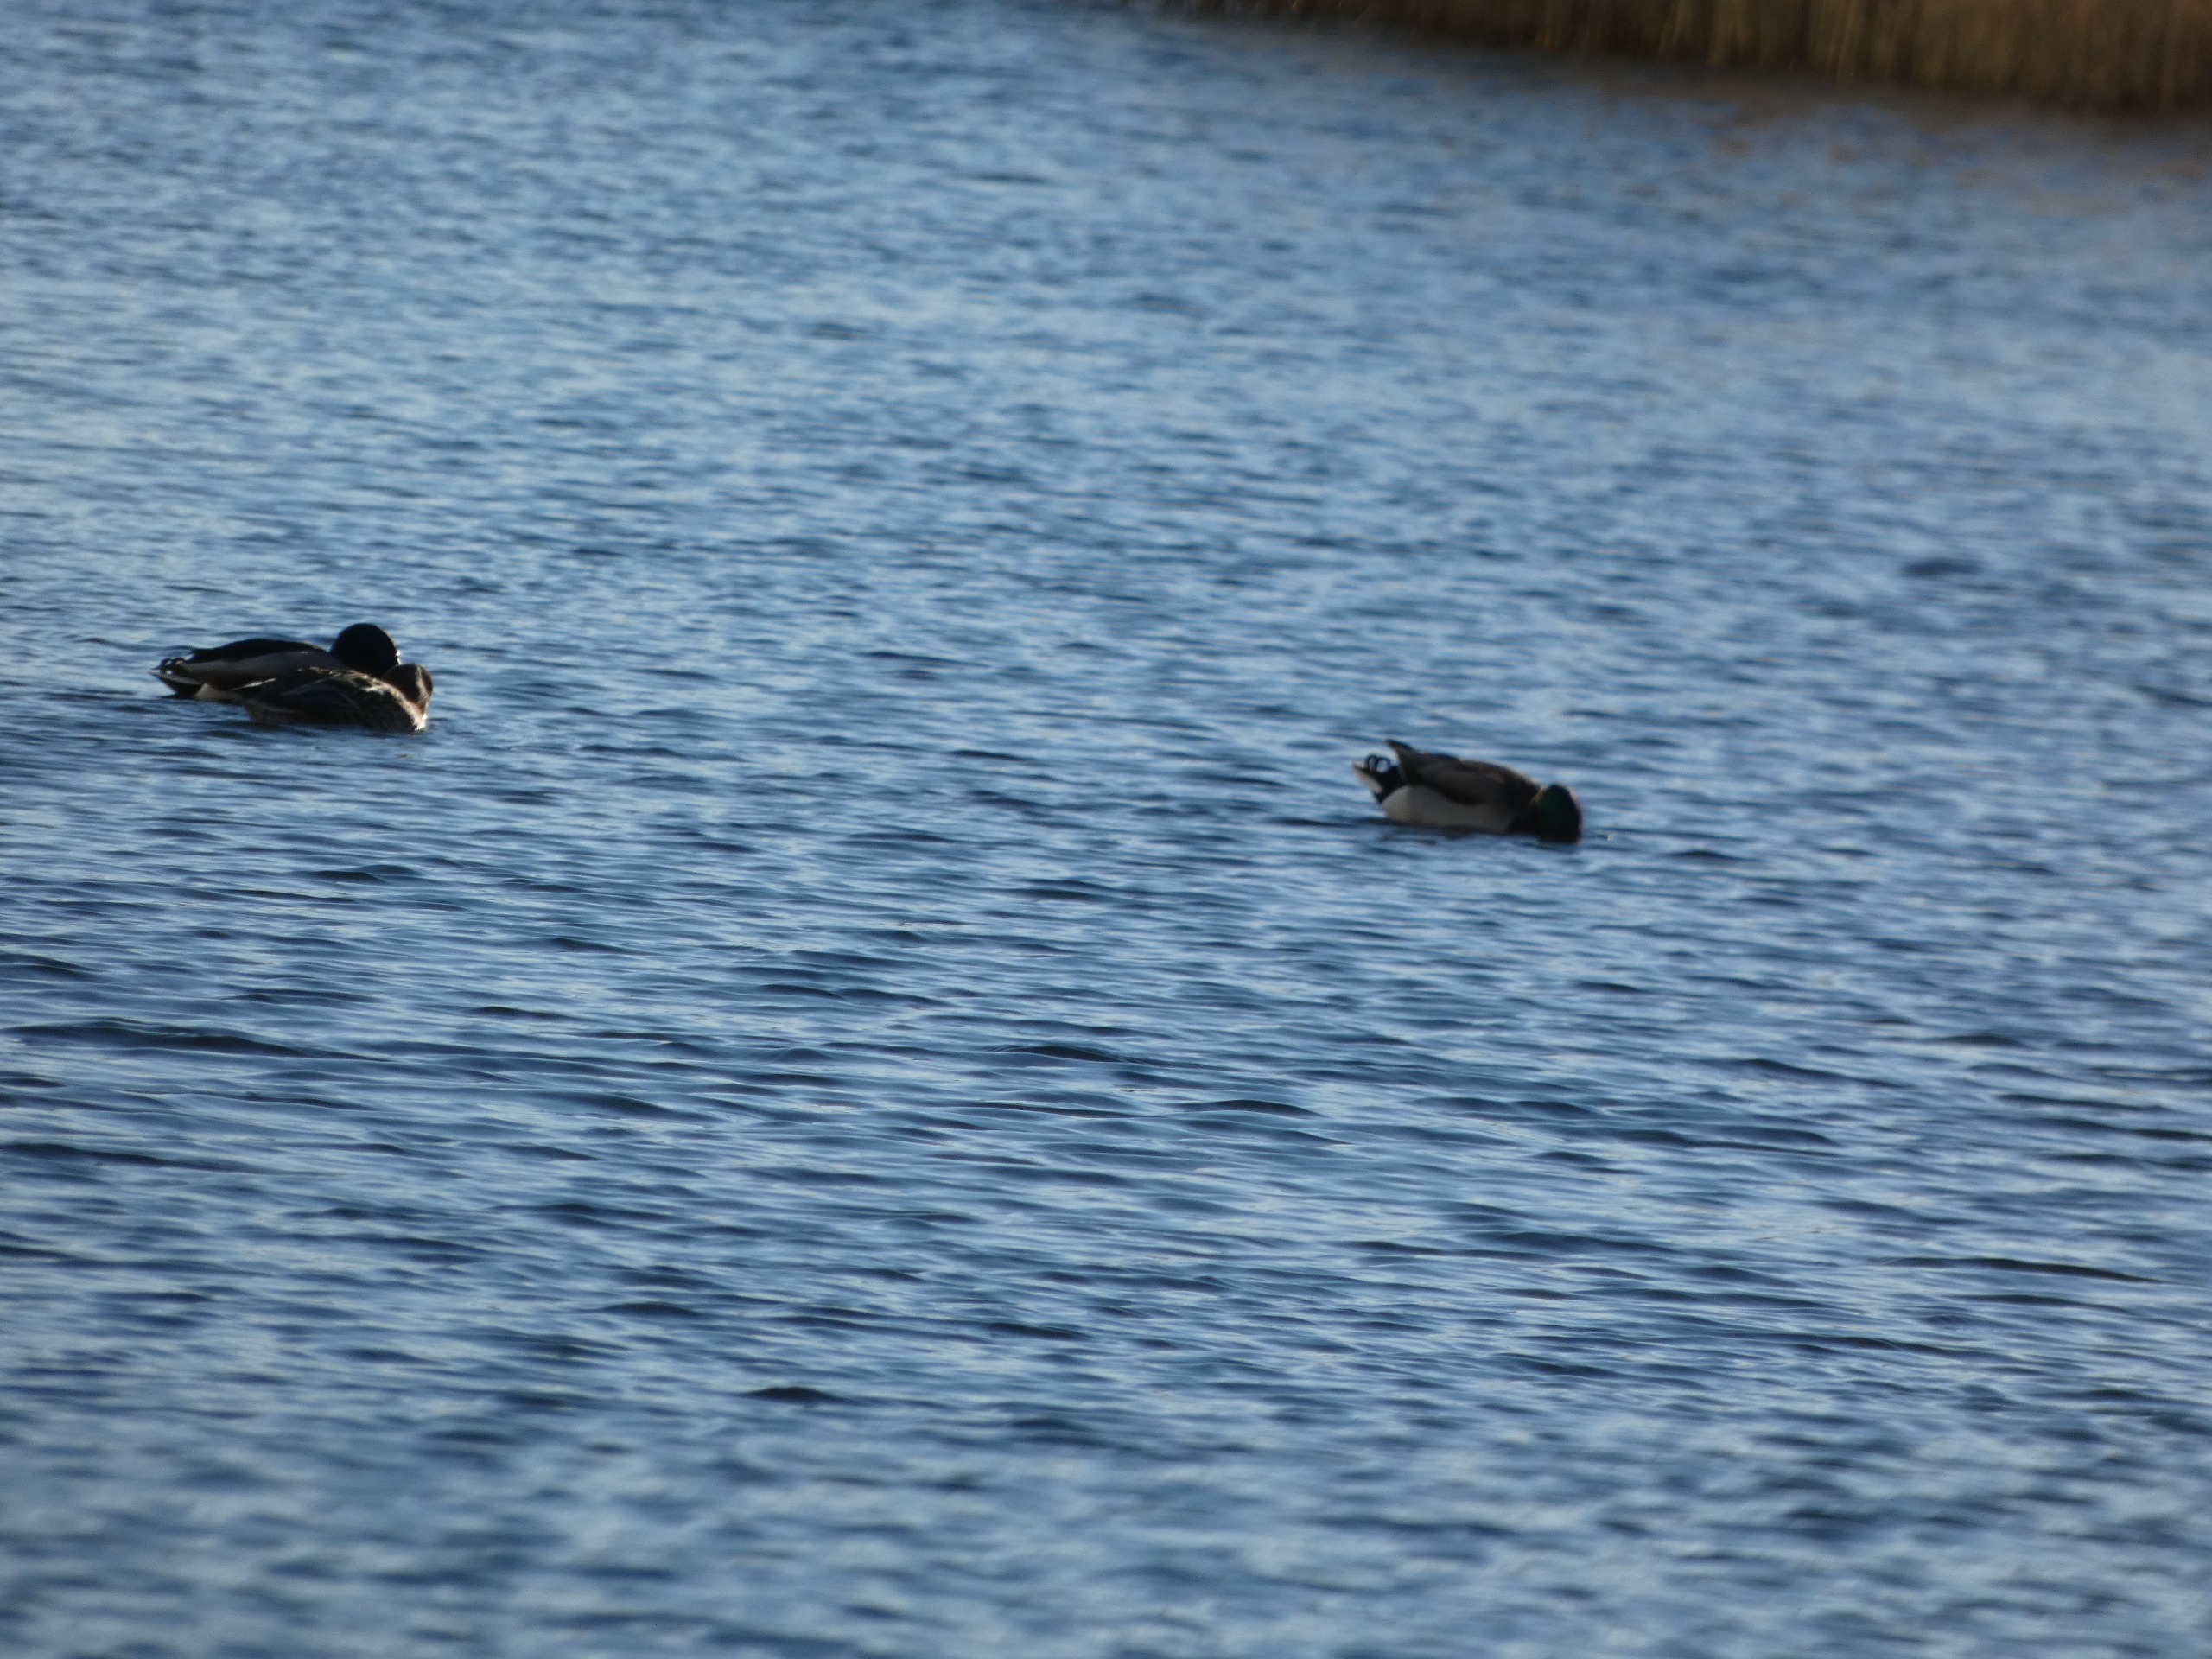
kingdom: Animalia
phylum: Chordata
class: Aves
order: Anseriformes
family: Anatidae
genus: Anas
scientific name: Anas platyrhynchos
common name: Gråand
